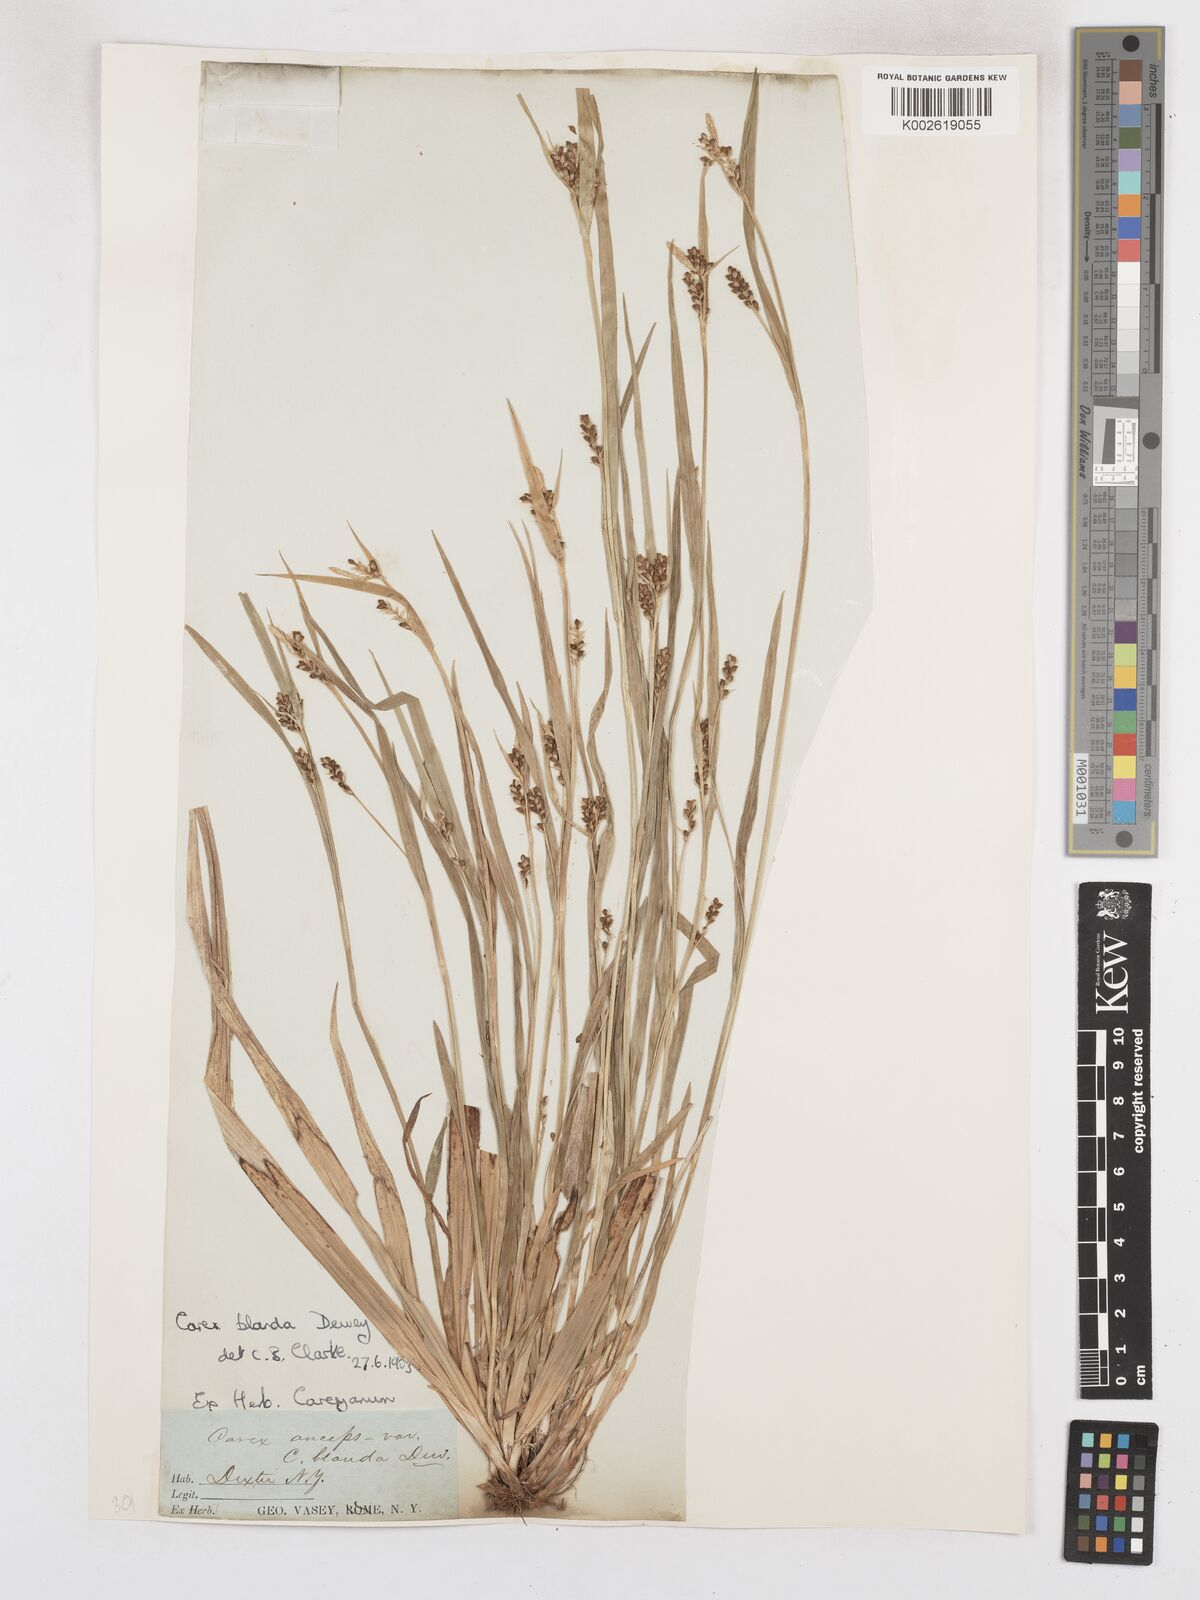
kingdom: Plantae
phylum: Tracheophyta
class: Liliopsida
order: Poales
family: Cyperaceae
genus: Carex
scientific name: Carex blanda
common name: Bland sedge
